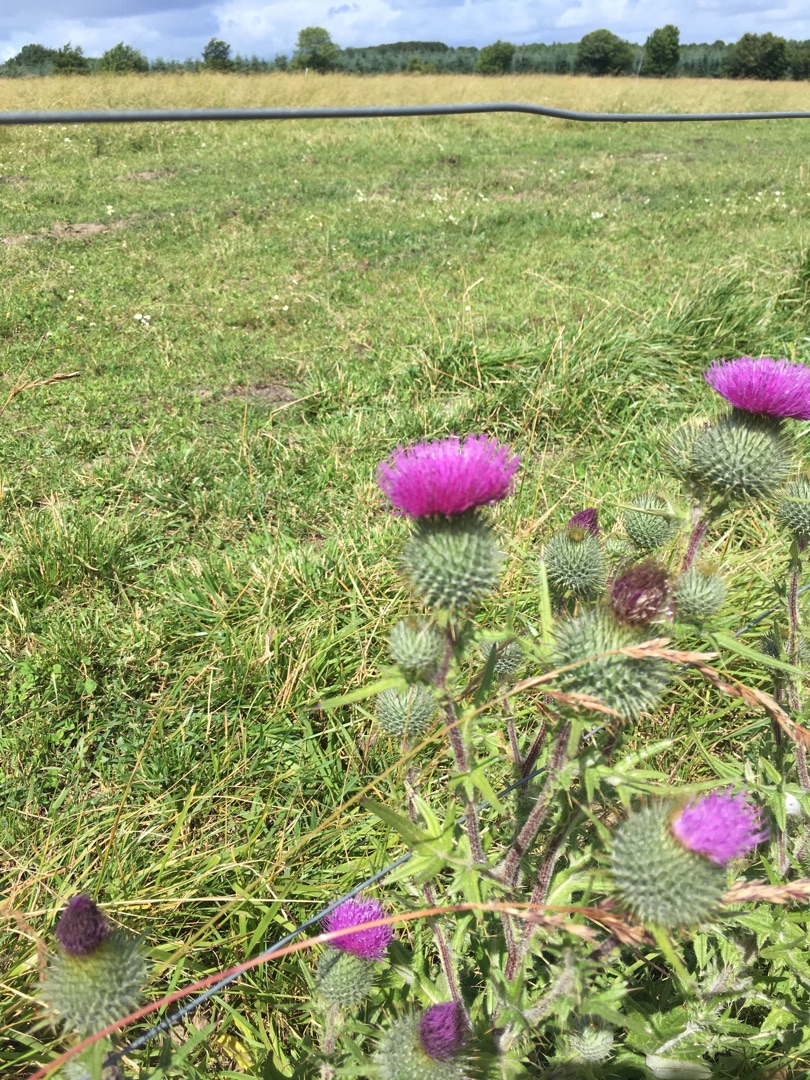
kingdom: Plantae
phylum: Tracheophyta
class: Magnoliopsida
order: Asterales
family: Asteraceae
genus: Cirsium
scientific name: Cirsium vulgare
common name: Horse-tidsel
